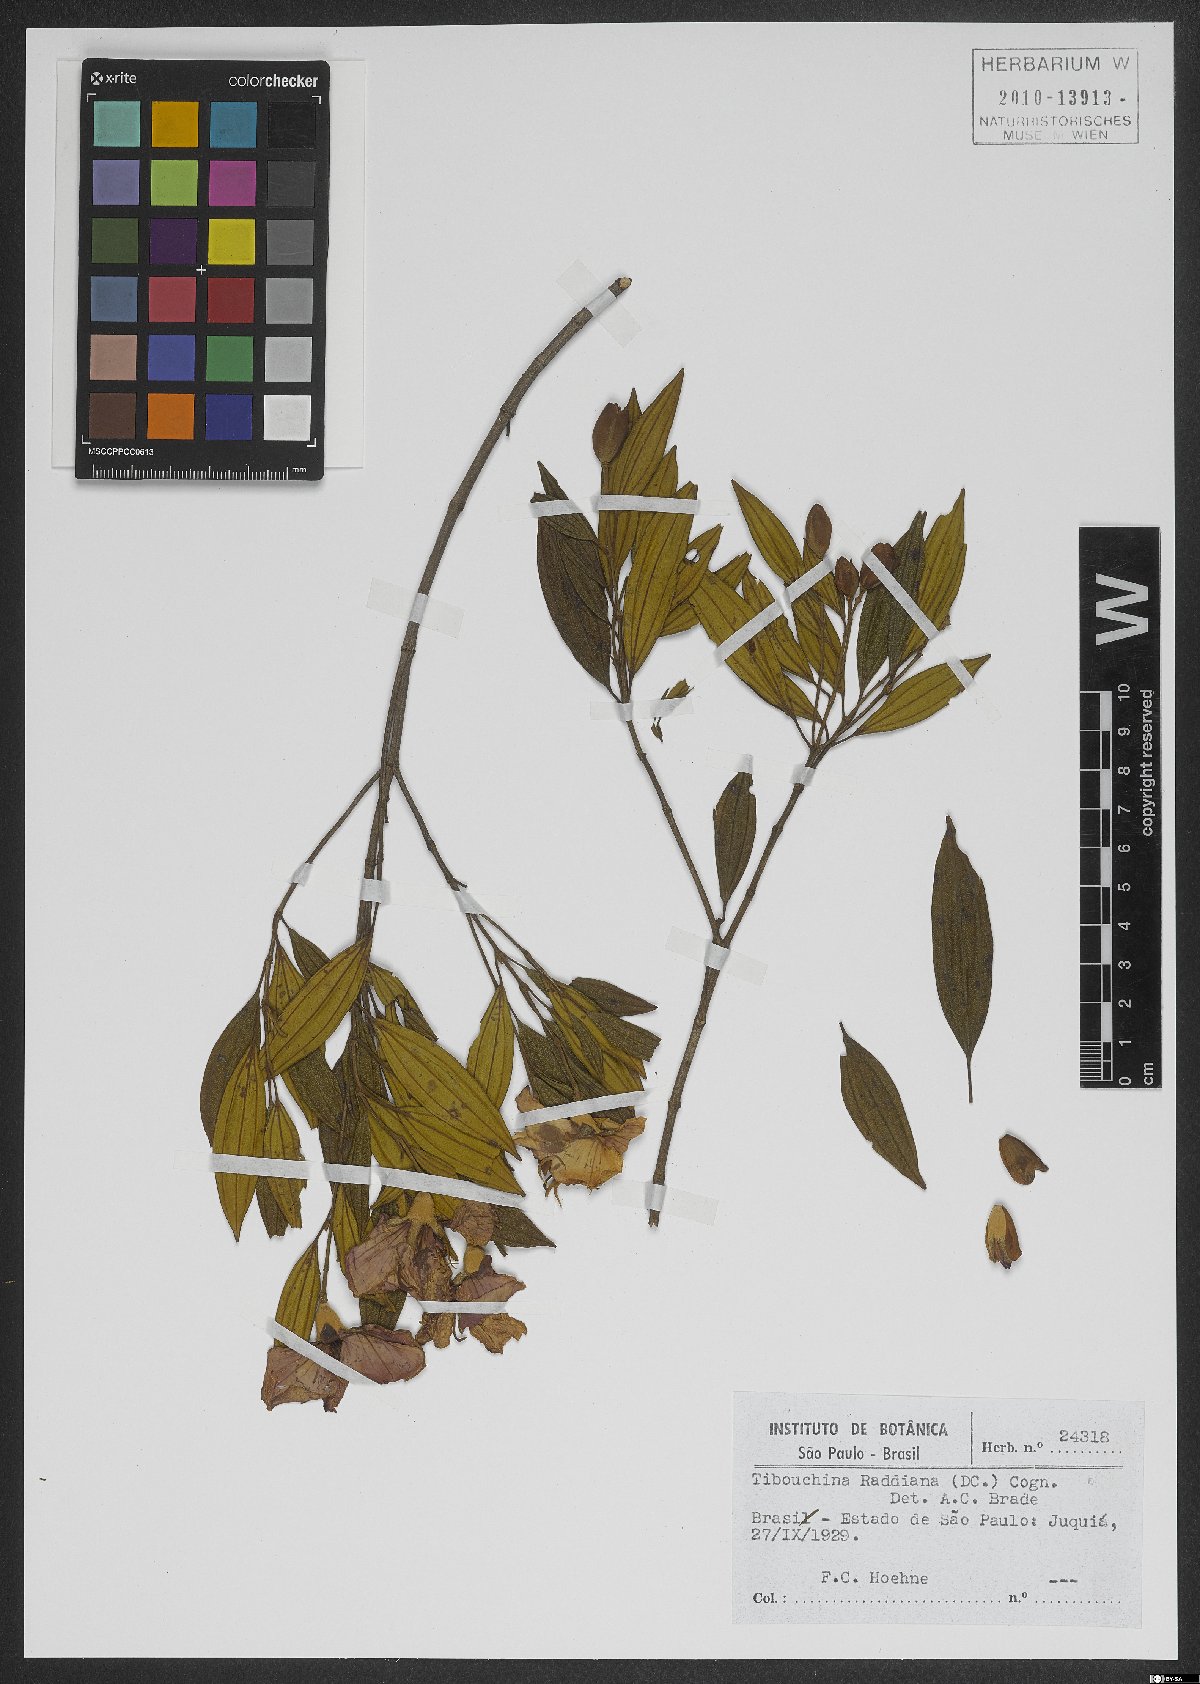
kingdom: Plantae
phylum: Tracheophyta
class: Magnoliopsida
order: Myrtales
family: Melastomataceae
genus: Pleroma
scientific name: Pleroma raddianum
